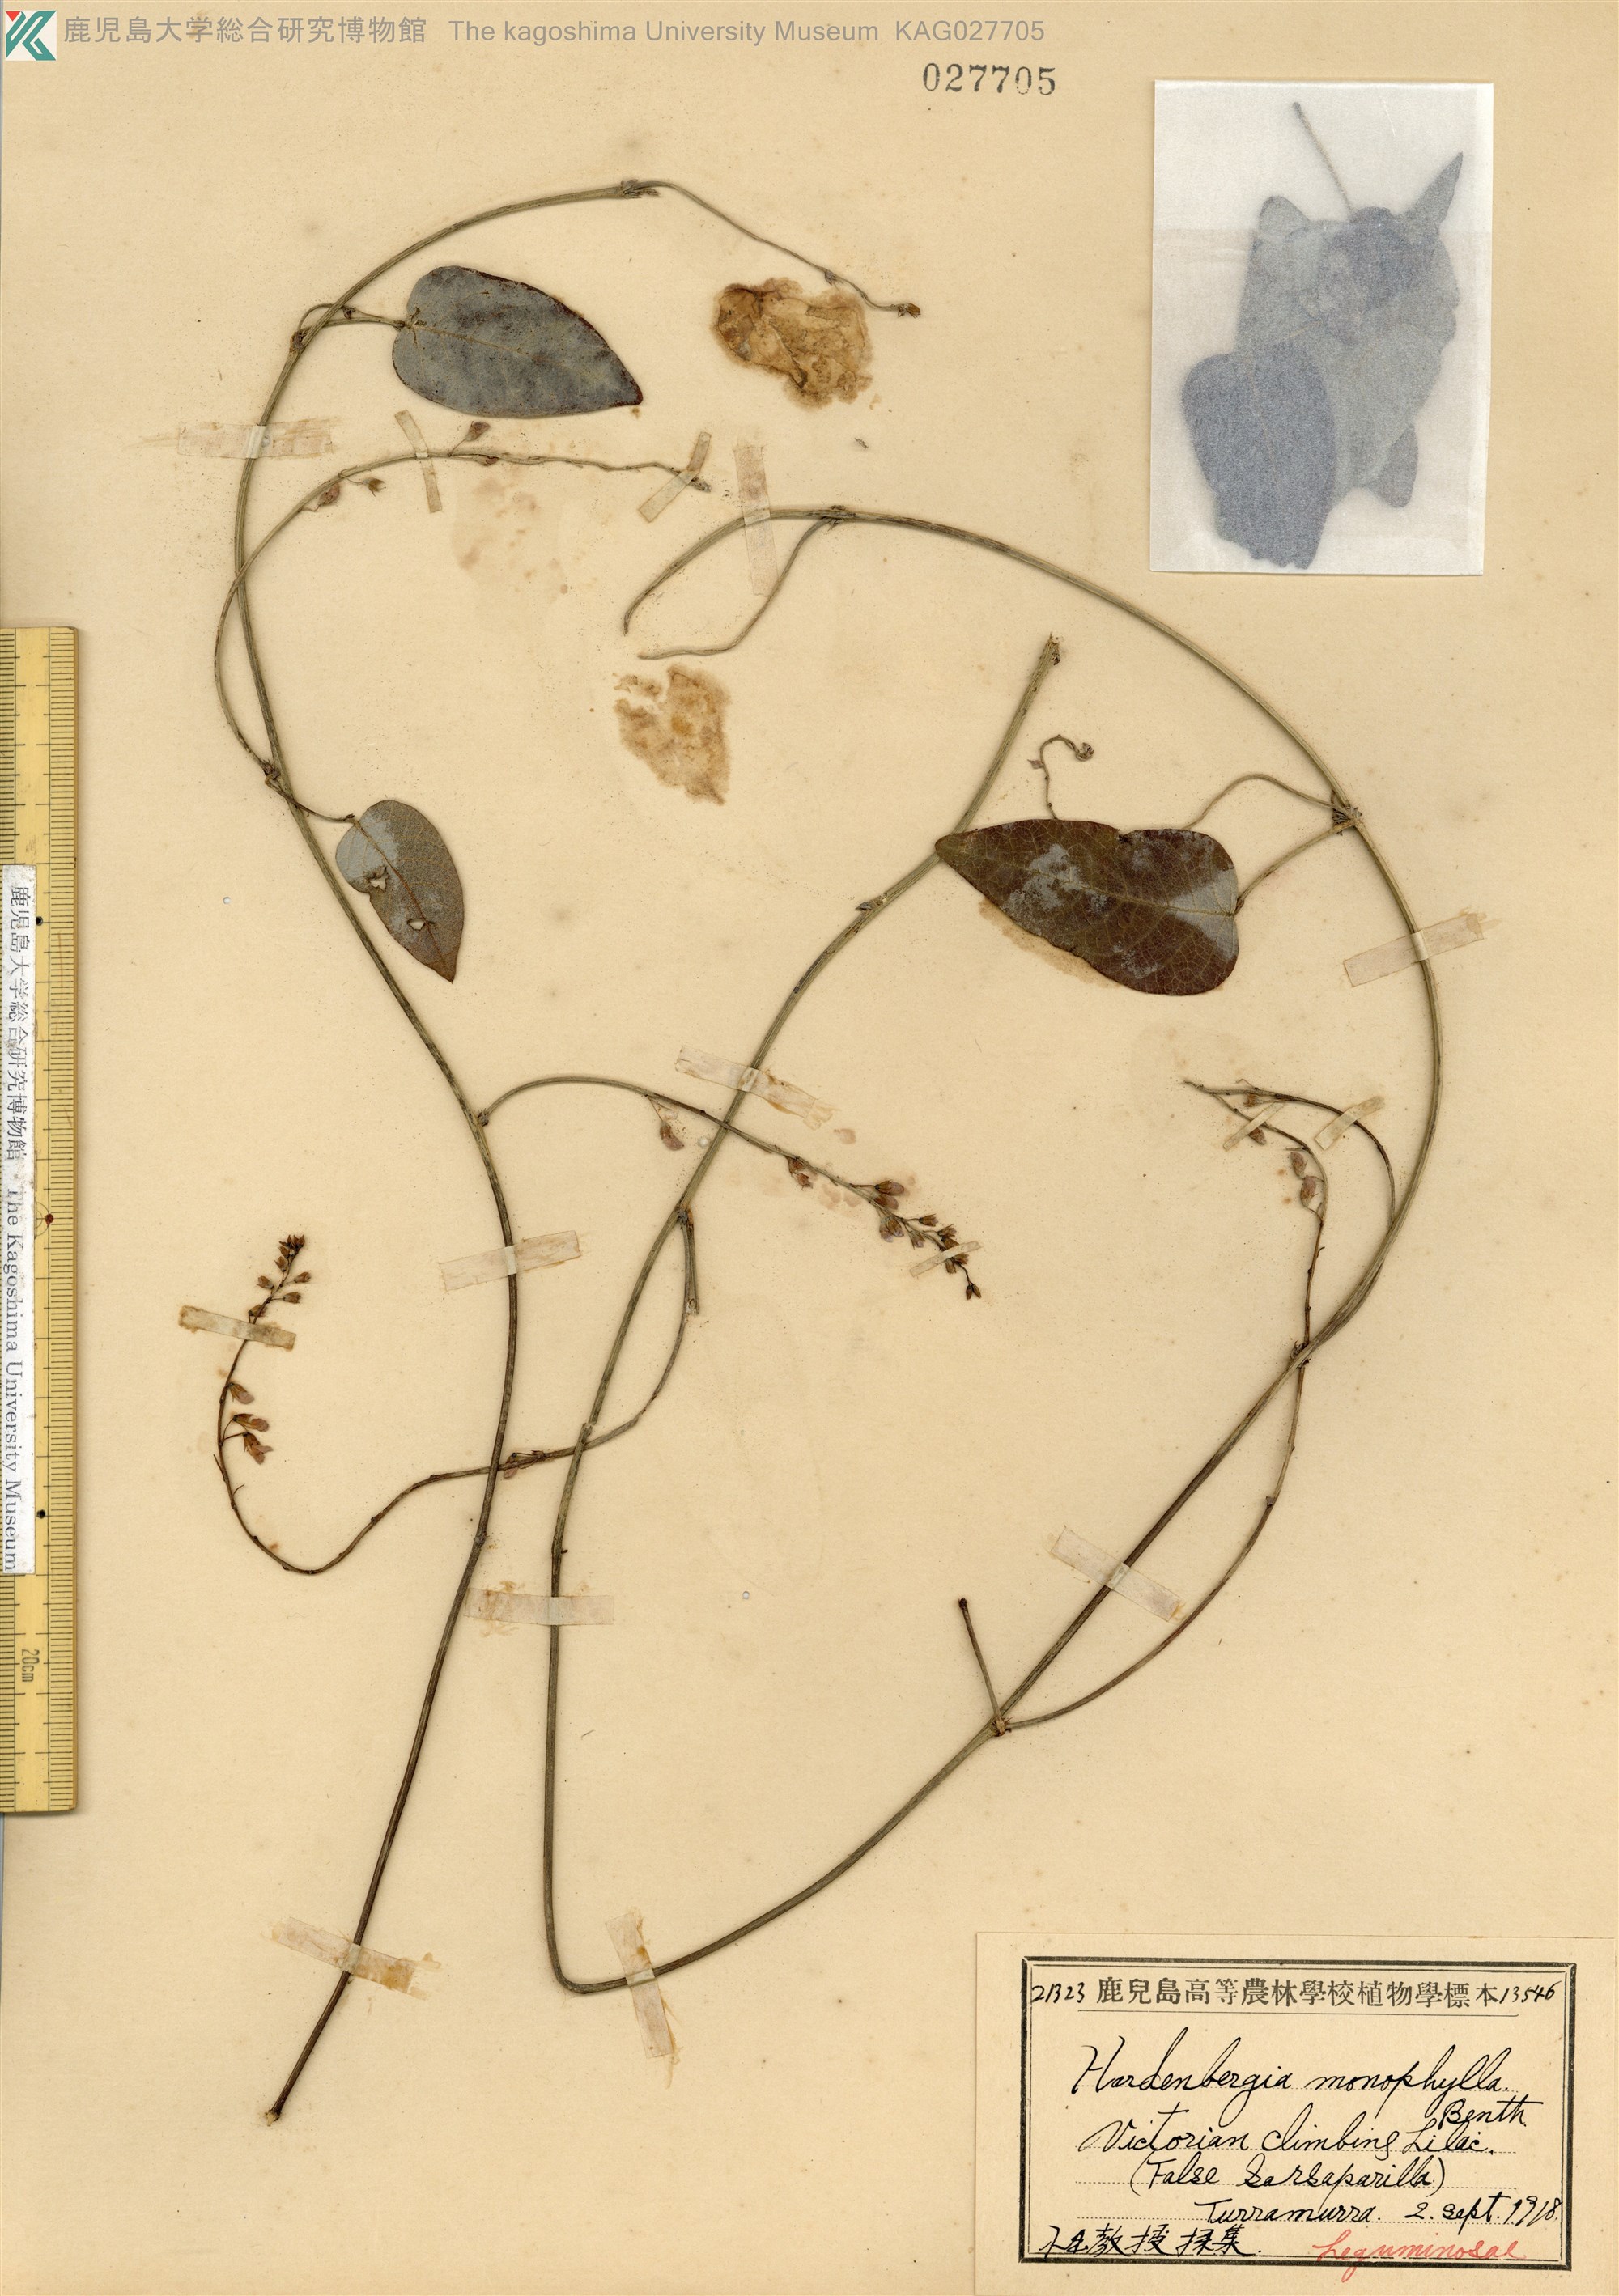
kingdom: Plantae
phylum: Tracheophyta
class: Magnoliopsida
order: Fabales
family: Fabaceae
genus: Hardenbergia
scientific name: Hardenbergia violacea
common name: Coral-pea
